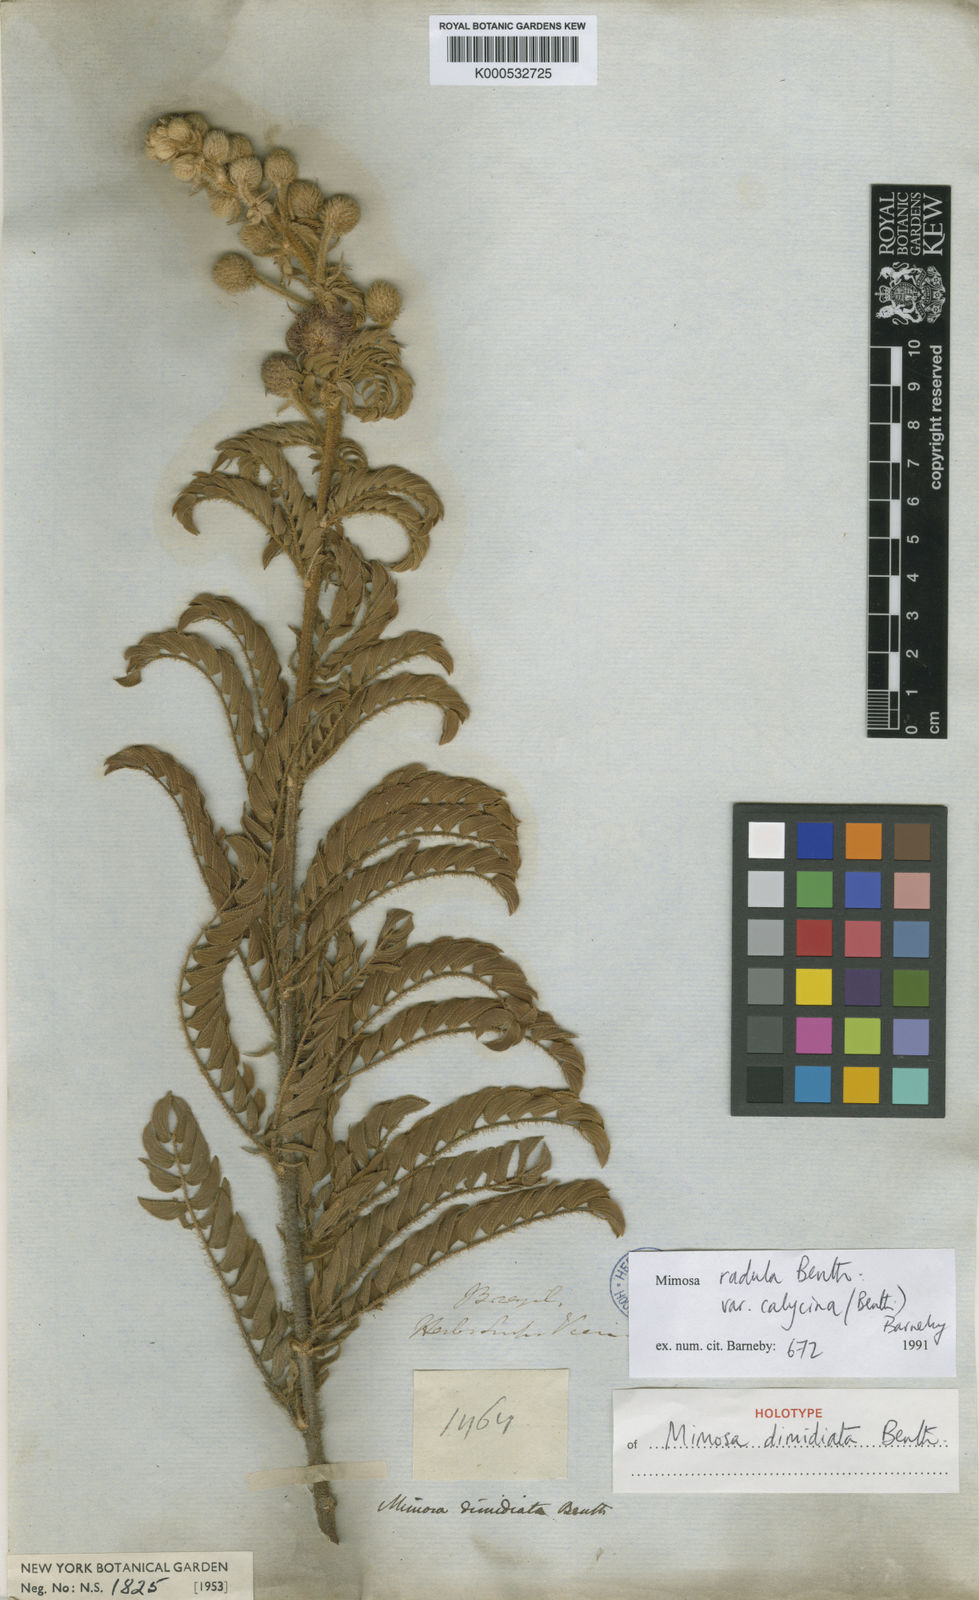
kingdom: Plantae
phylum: Tracheophyta
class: Magnoliopsida
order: Fabales
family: Fabaceae
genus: Mimosa
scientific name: Mimosa radula
